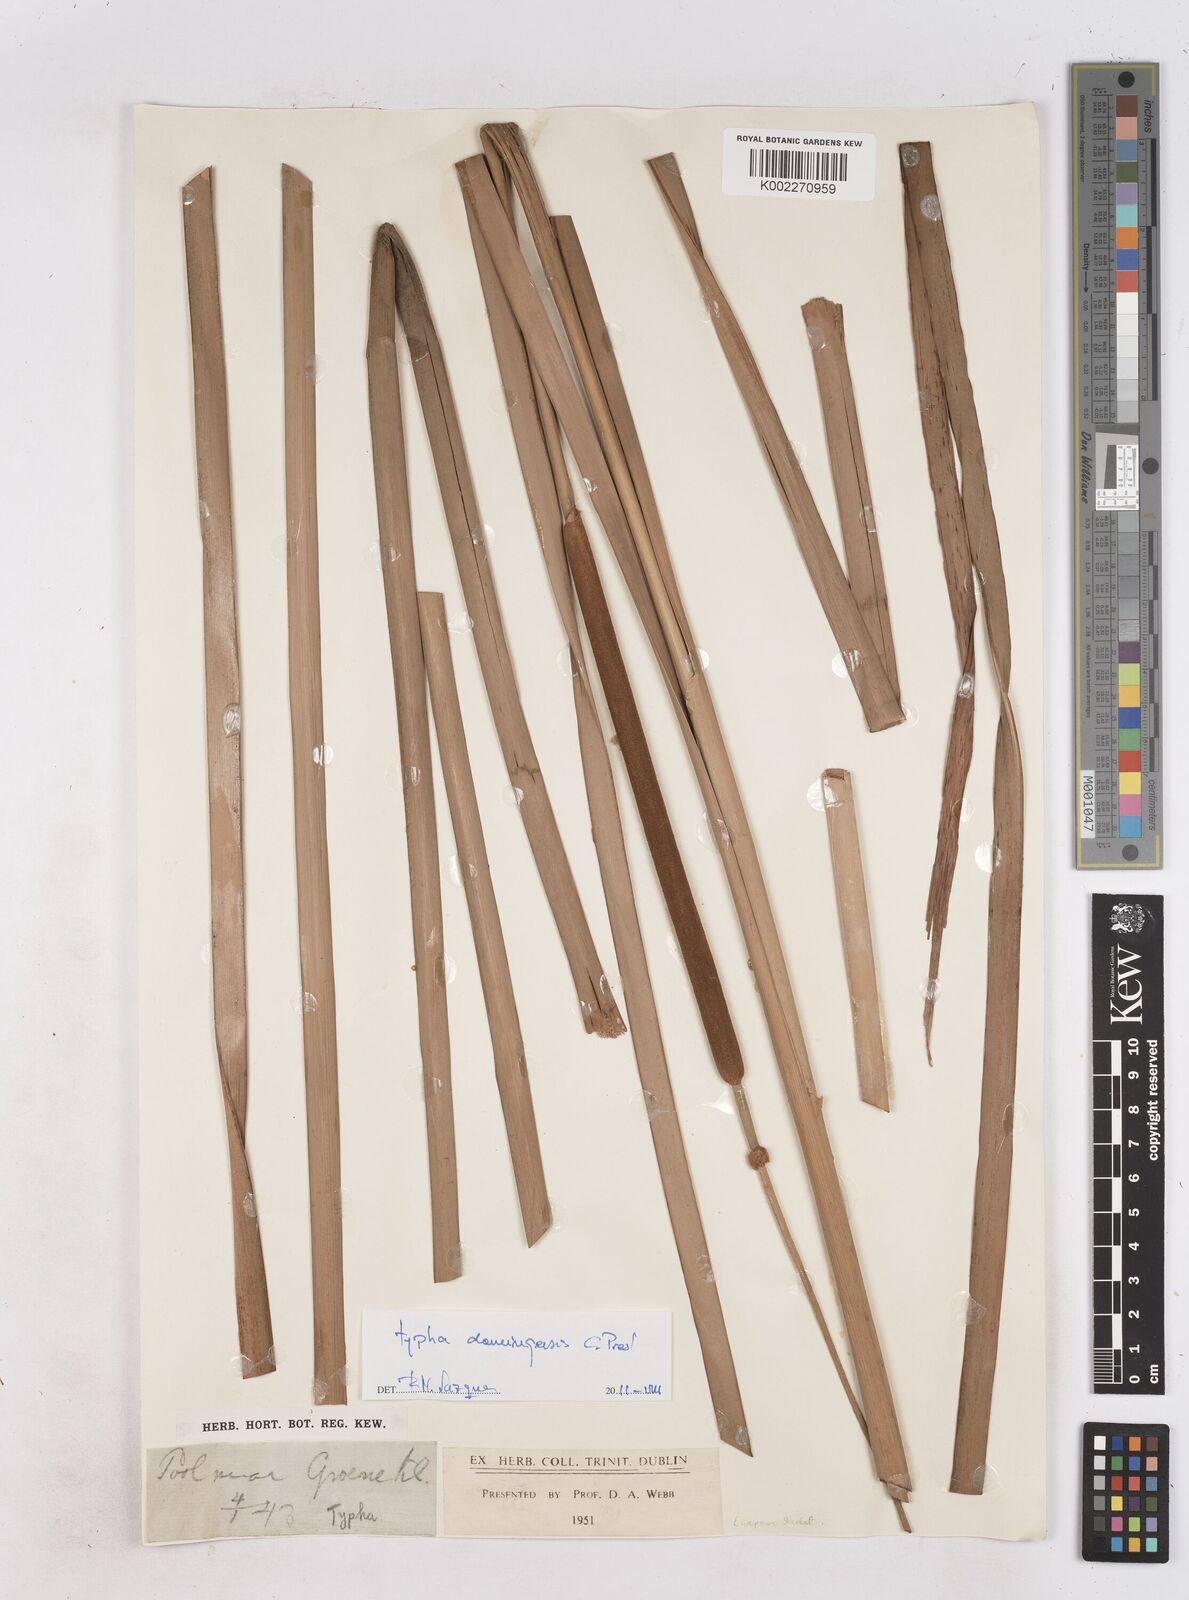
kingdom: Plantae
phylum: Tracheophyta
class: Liliopsida
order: Poales
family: Typhaceae
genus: Typha
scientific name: Typha
